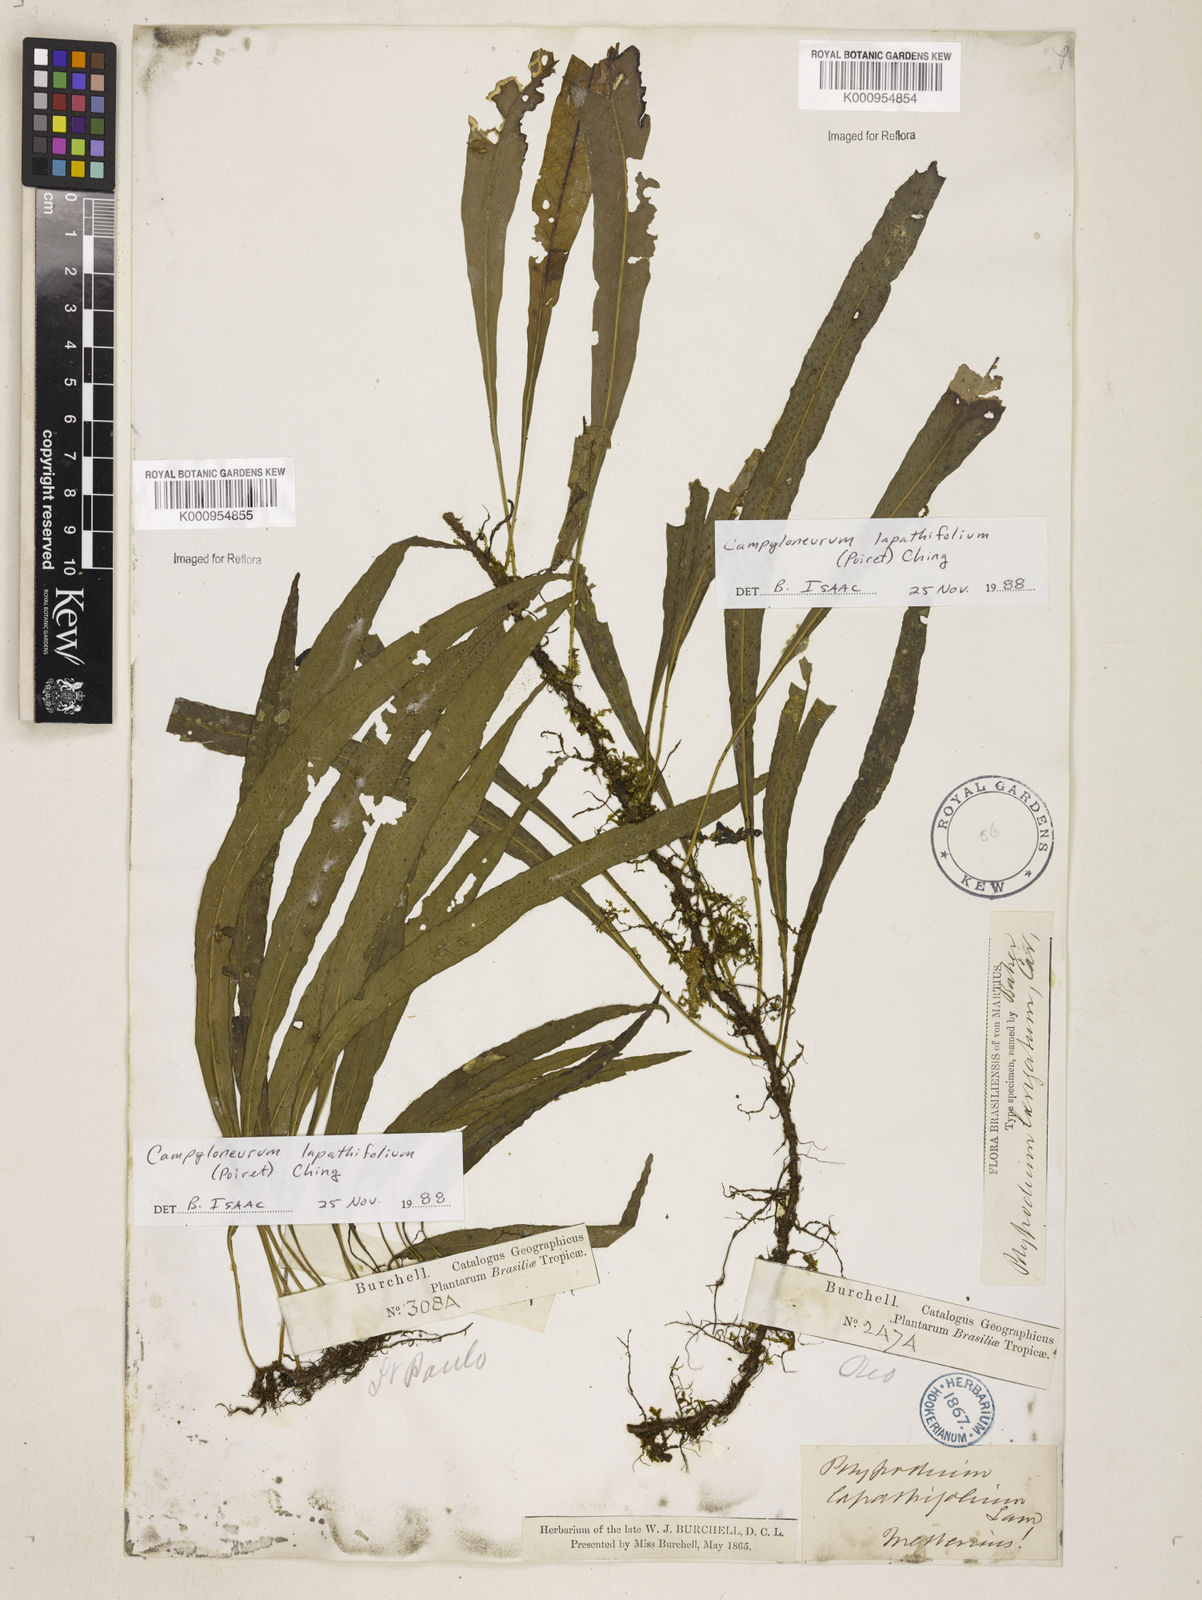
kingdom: Plantae
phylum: Tracheophyta
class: Polypodiopsida
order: Polypodiales
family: Polypodiaceae
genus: Campyloneurum
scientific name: Campyloneurum repens
